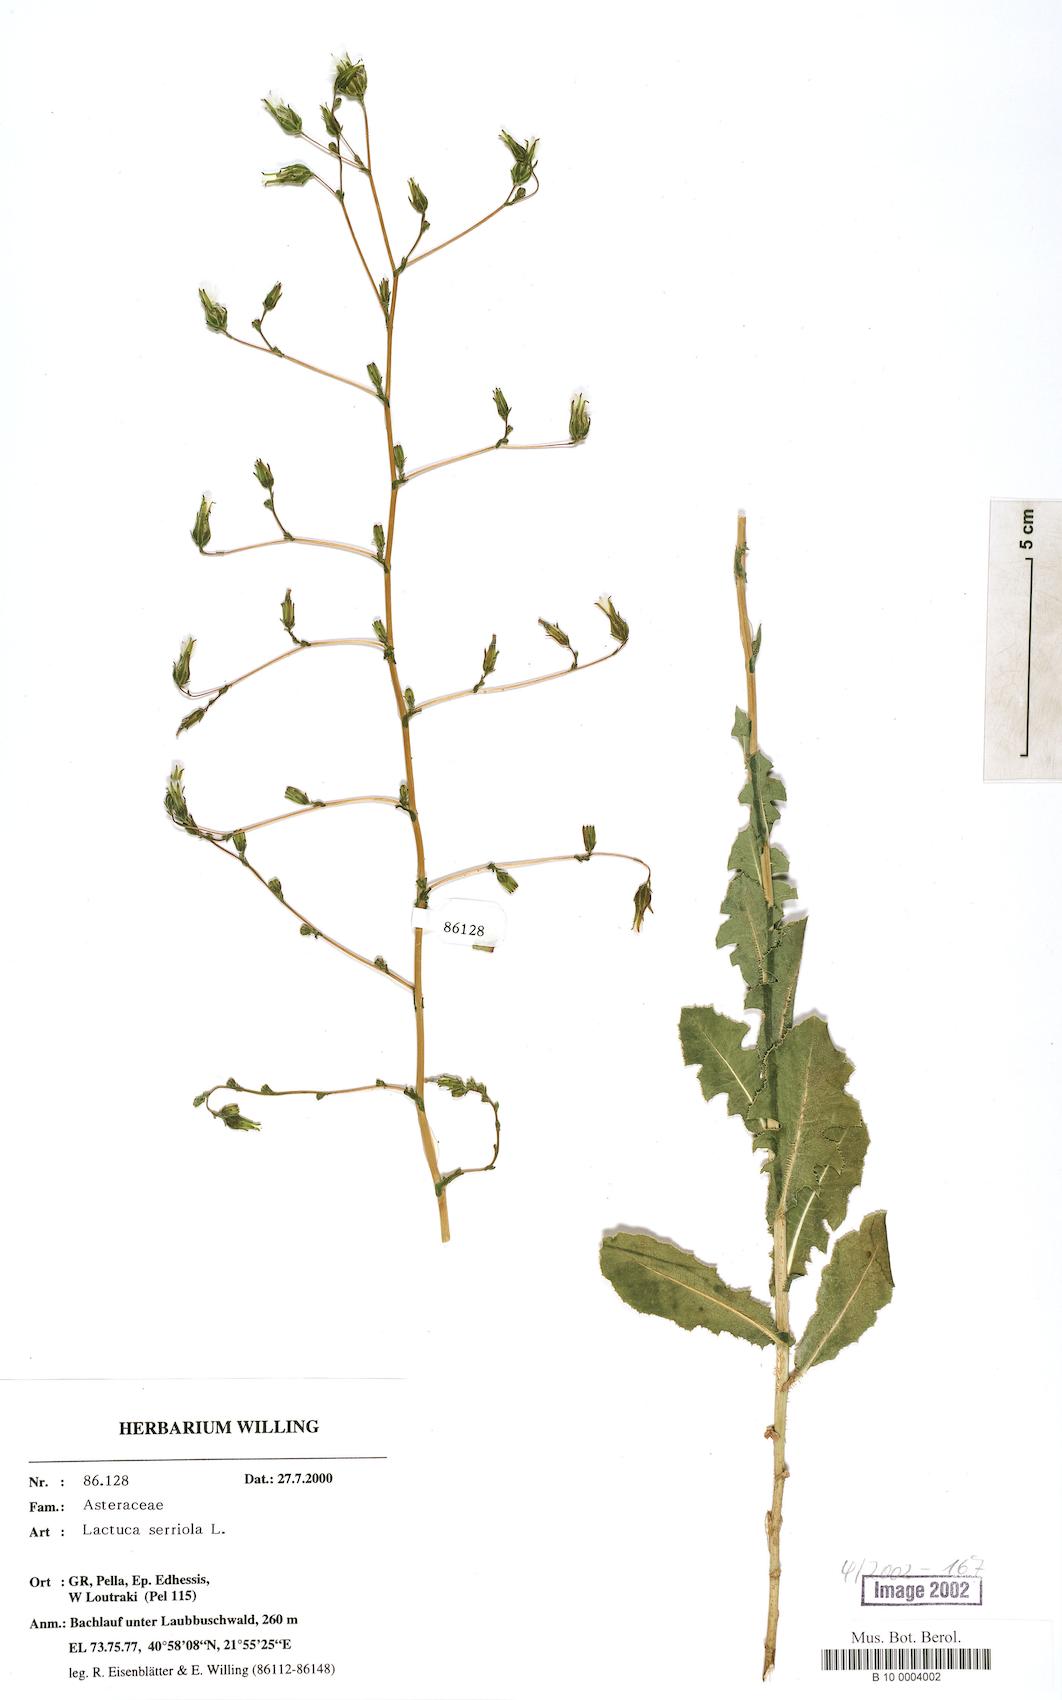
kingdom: Plantae
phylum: Tracheophyta
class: Magnoliopsida
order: Asterales
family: Asteraceae
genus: Lactuca
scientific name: Lactuca serriola
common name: Prickly lettuce
